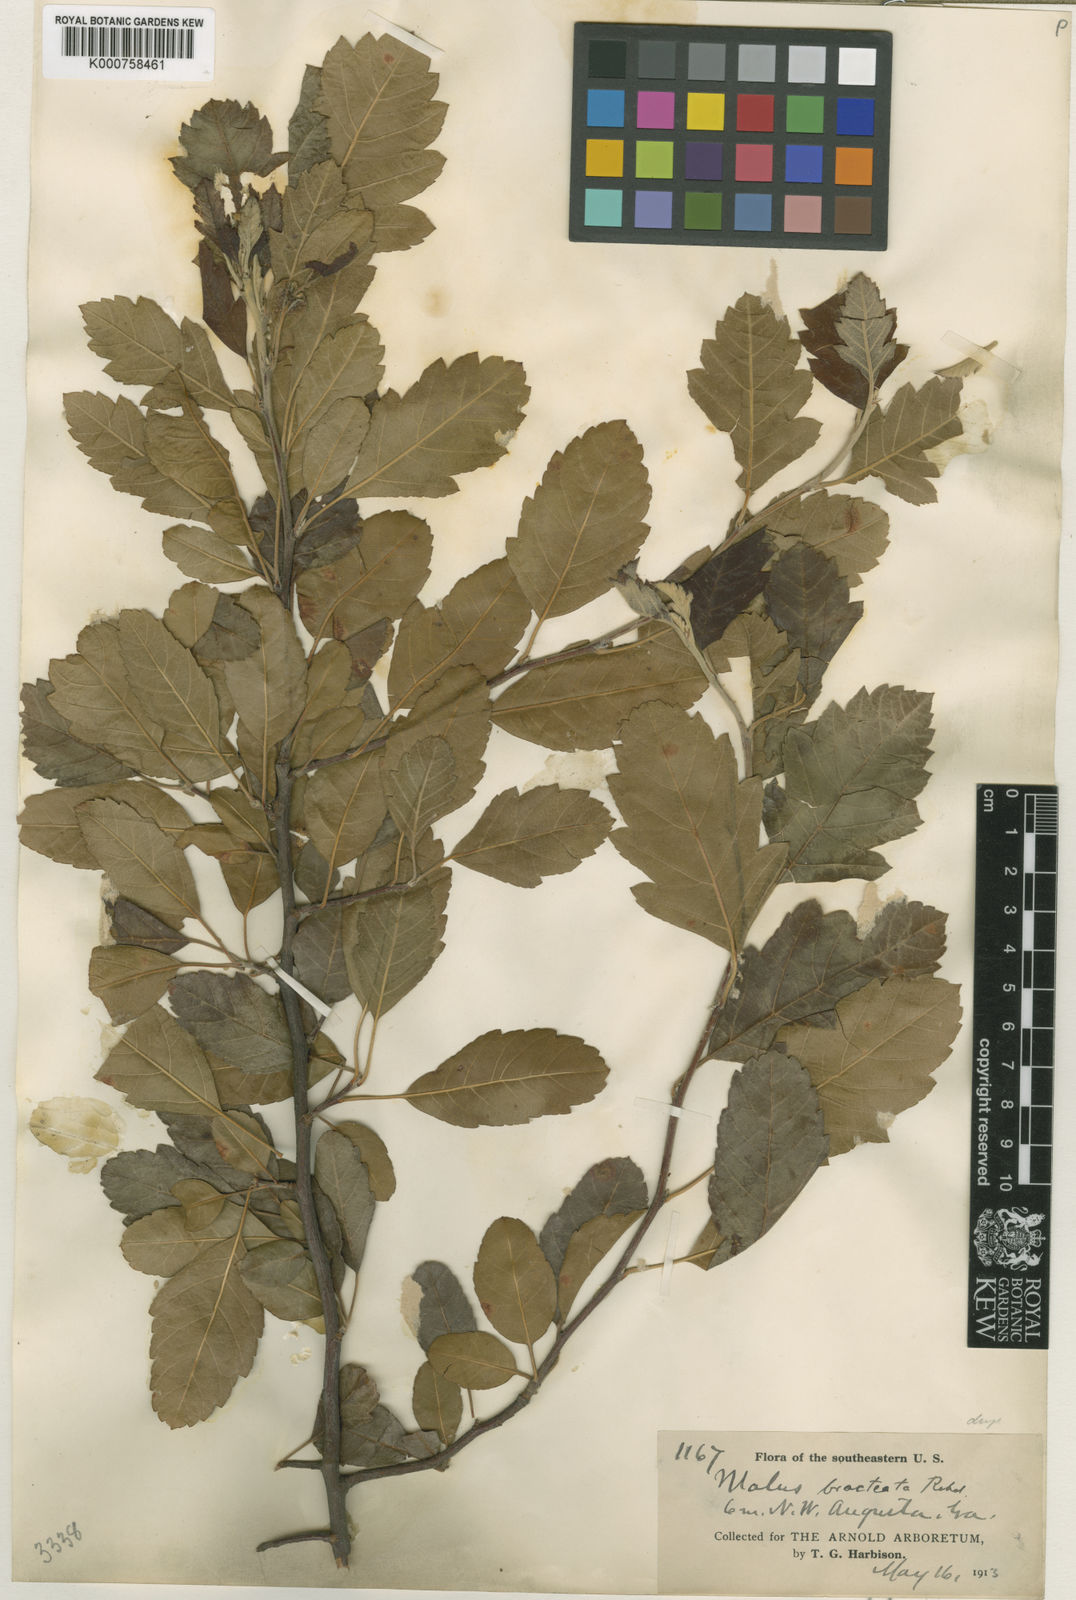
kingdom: Plantae
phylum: Tracheophyta
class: Magnoliopsida
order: Rosales
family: Rosaceae
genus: Malus
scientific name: Malus coronaria
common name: Sweet crab apple
